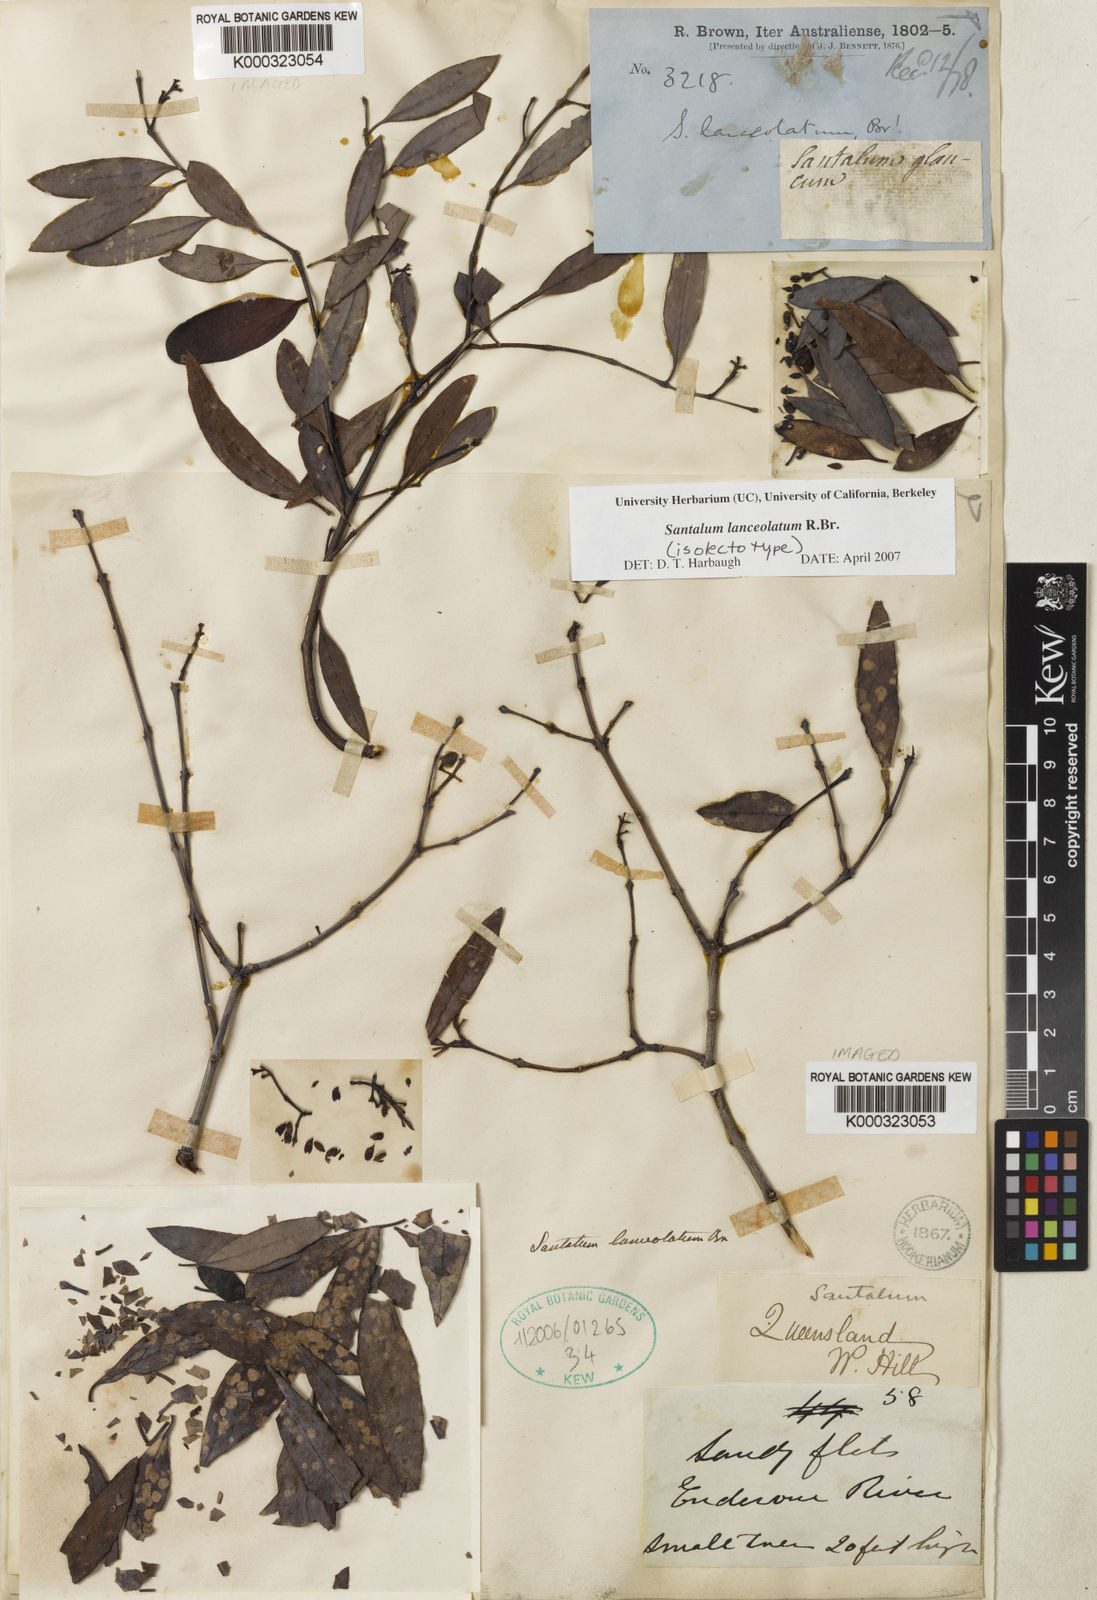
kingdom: Plantae
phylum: Tracheophyta
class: Magnoliopsida
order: Santalales
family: Santalaceae
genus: Santalum
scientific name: Santalum lanceolatum
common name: Ankwerley
